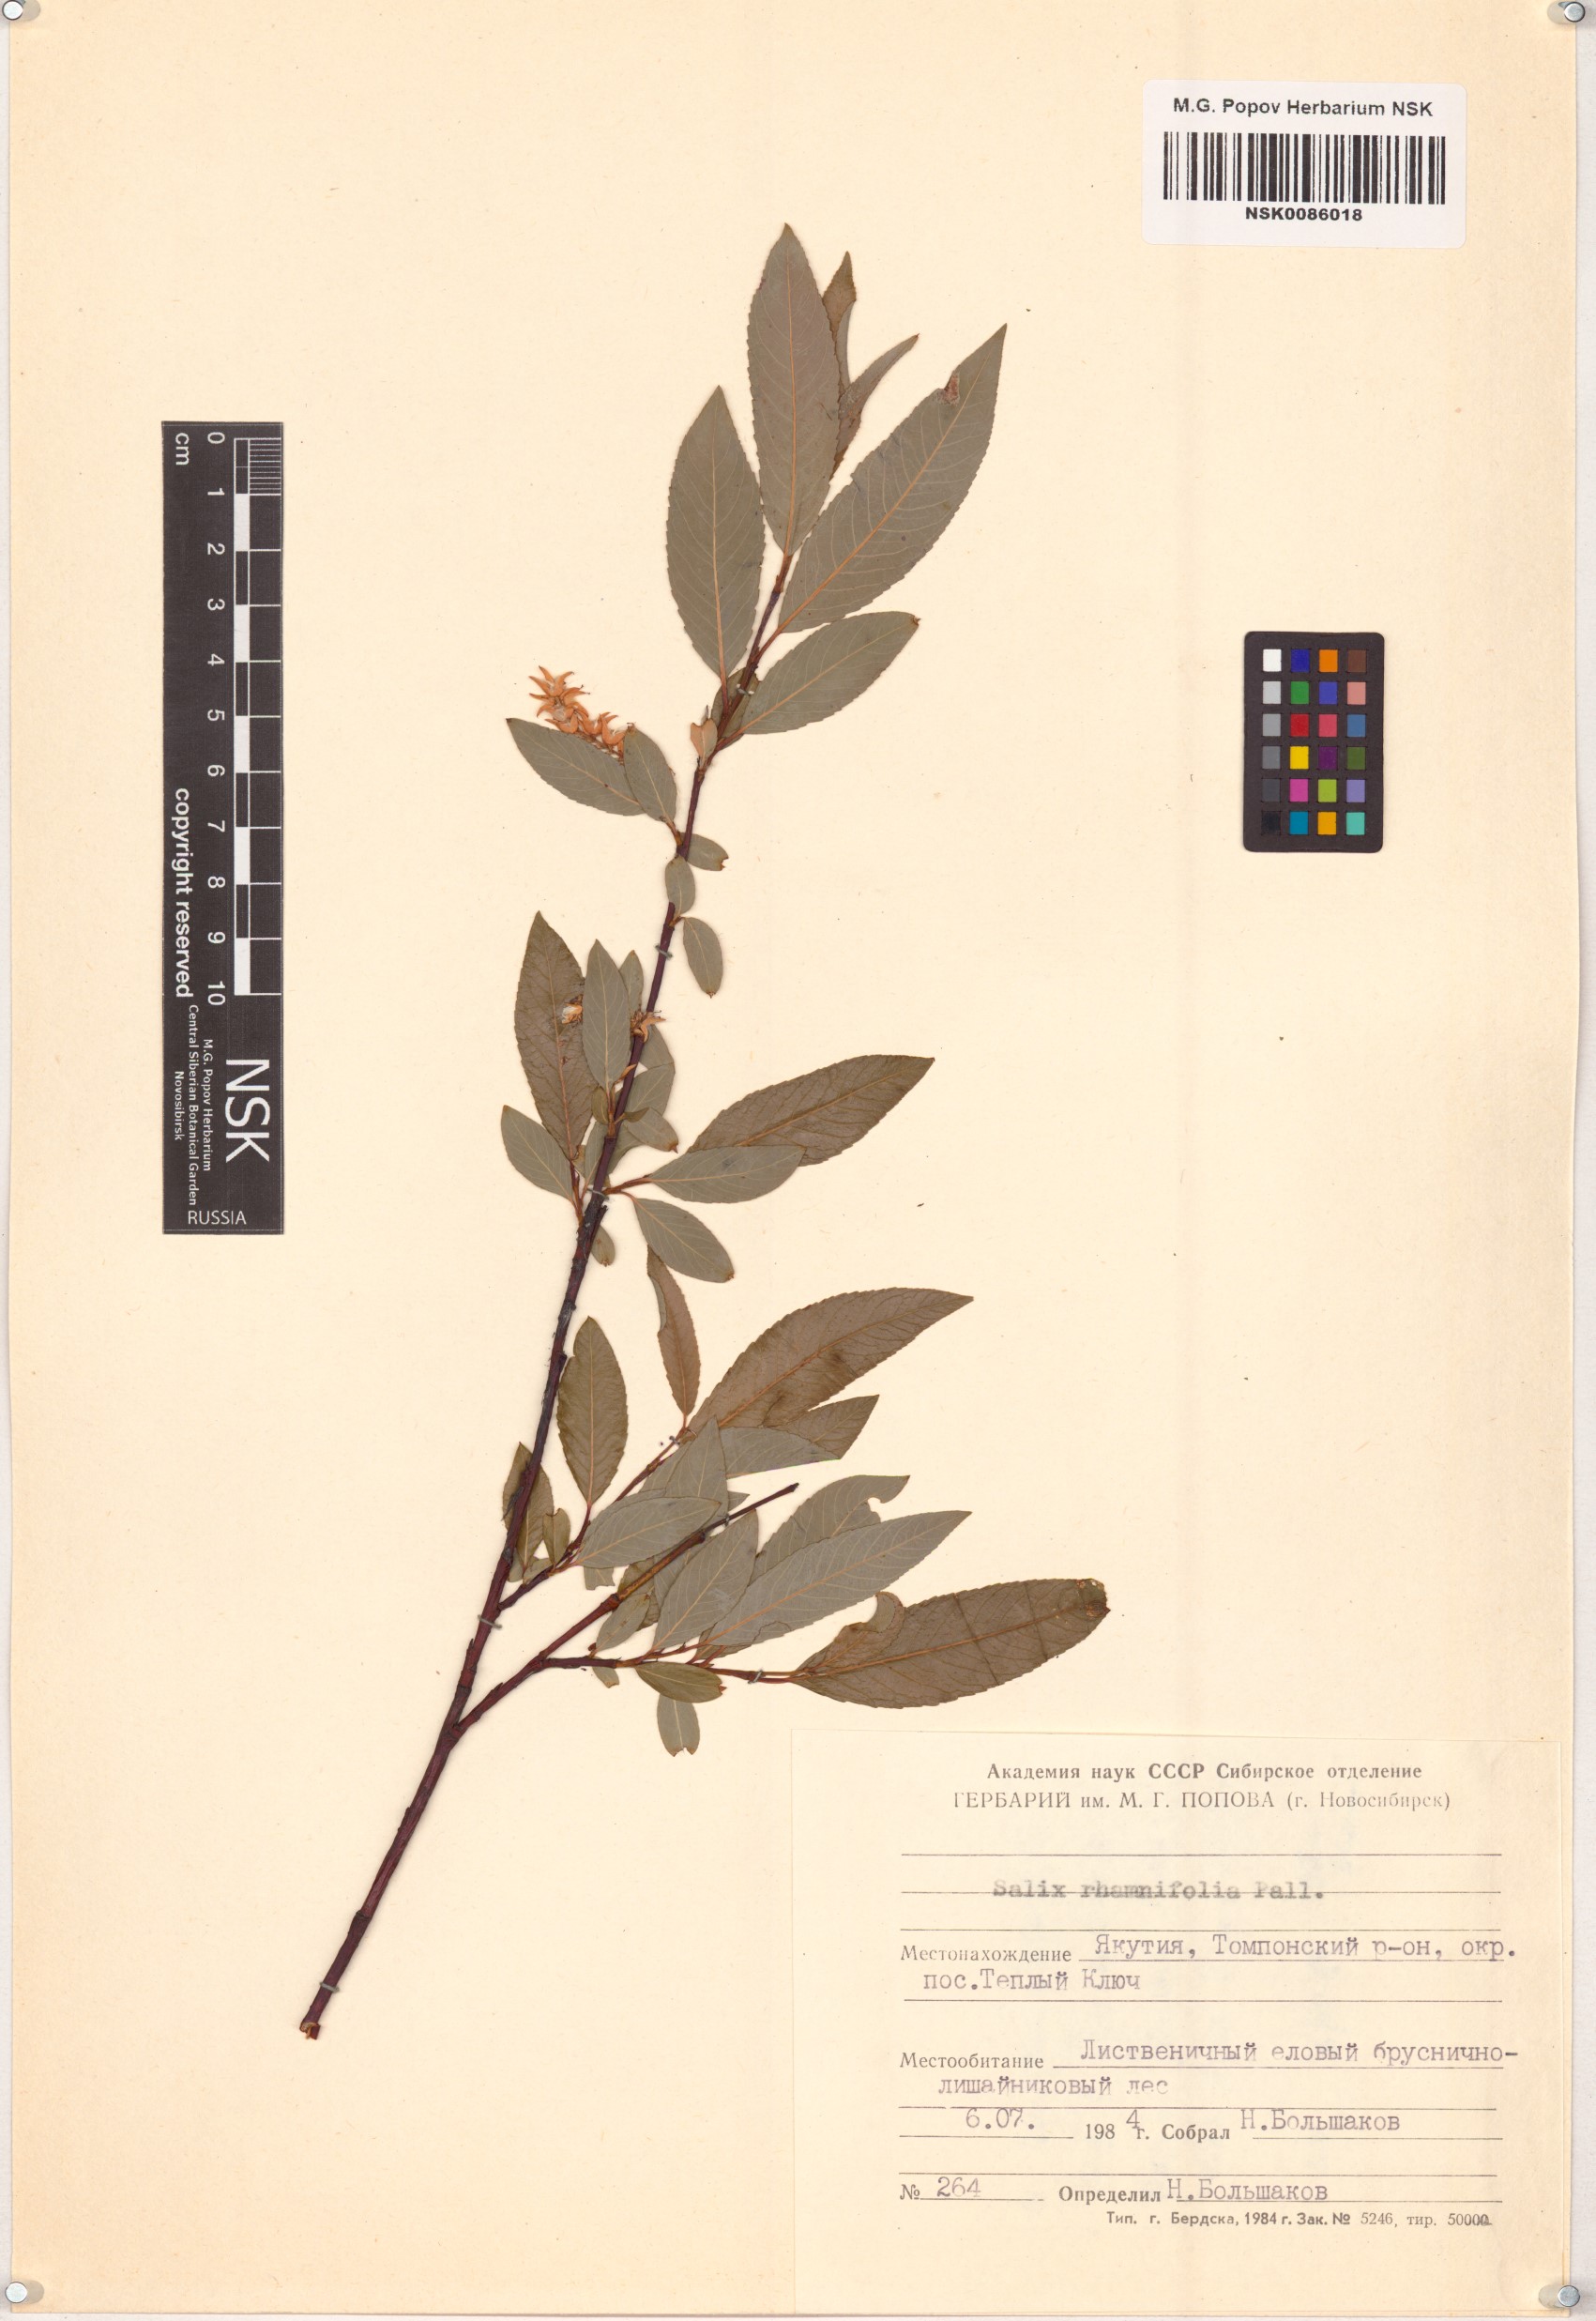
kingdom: Plantae
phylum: Tracheophyta
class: Magnoliopsida
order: Malpighiales
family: Salicaceae
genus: Salix
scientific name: Salix rhamnifolia
